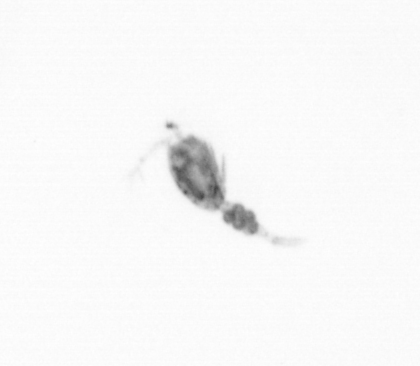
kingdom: Animalia
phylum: Arthropoda
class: Copepoda
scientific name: Copepoda
